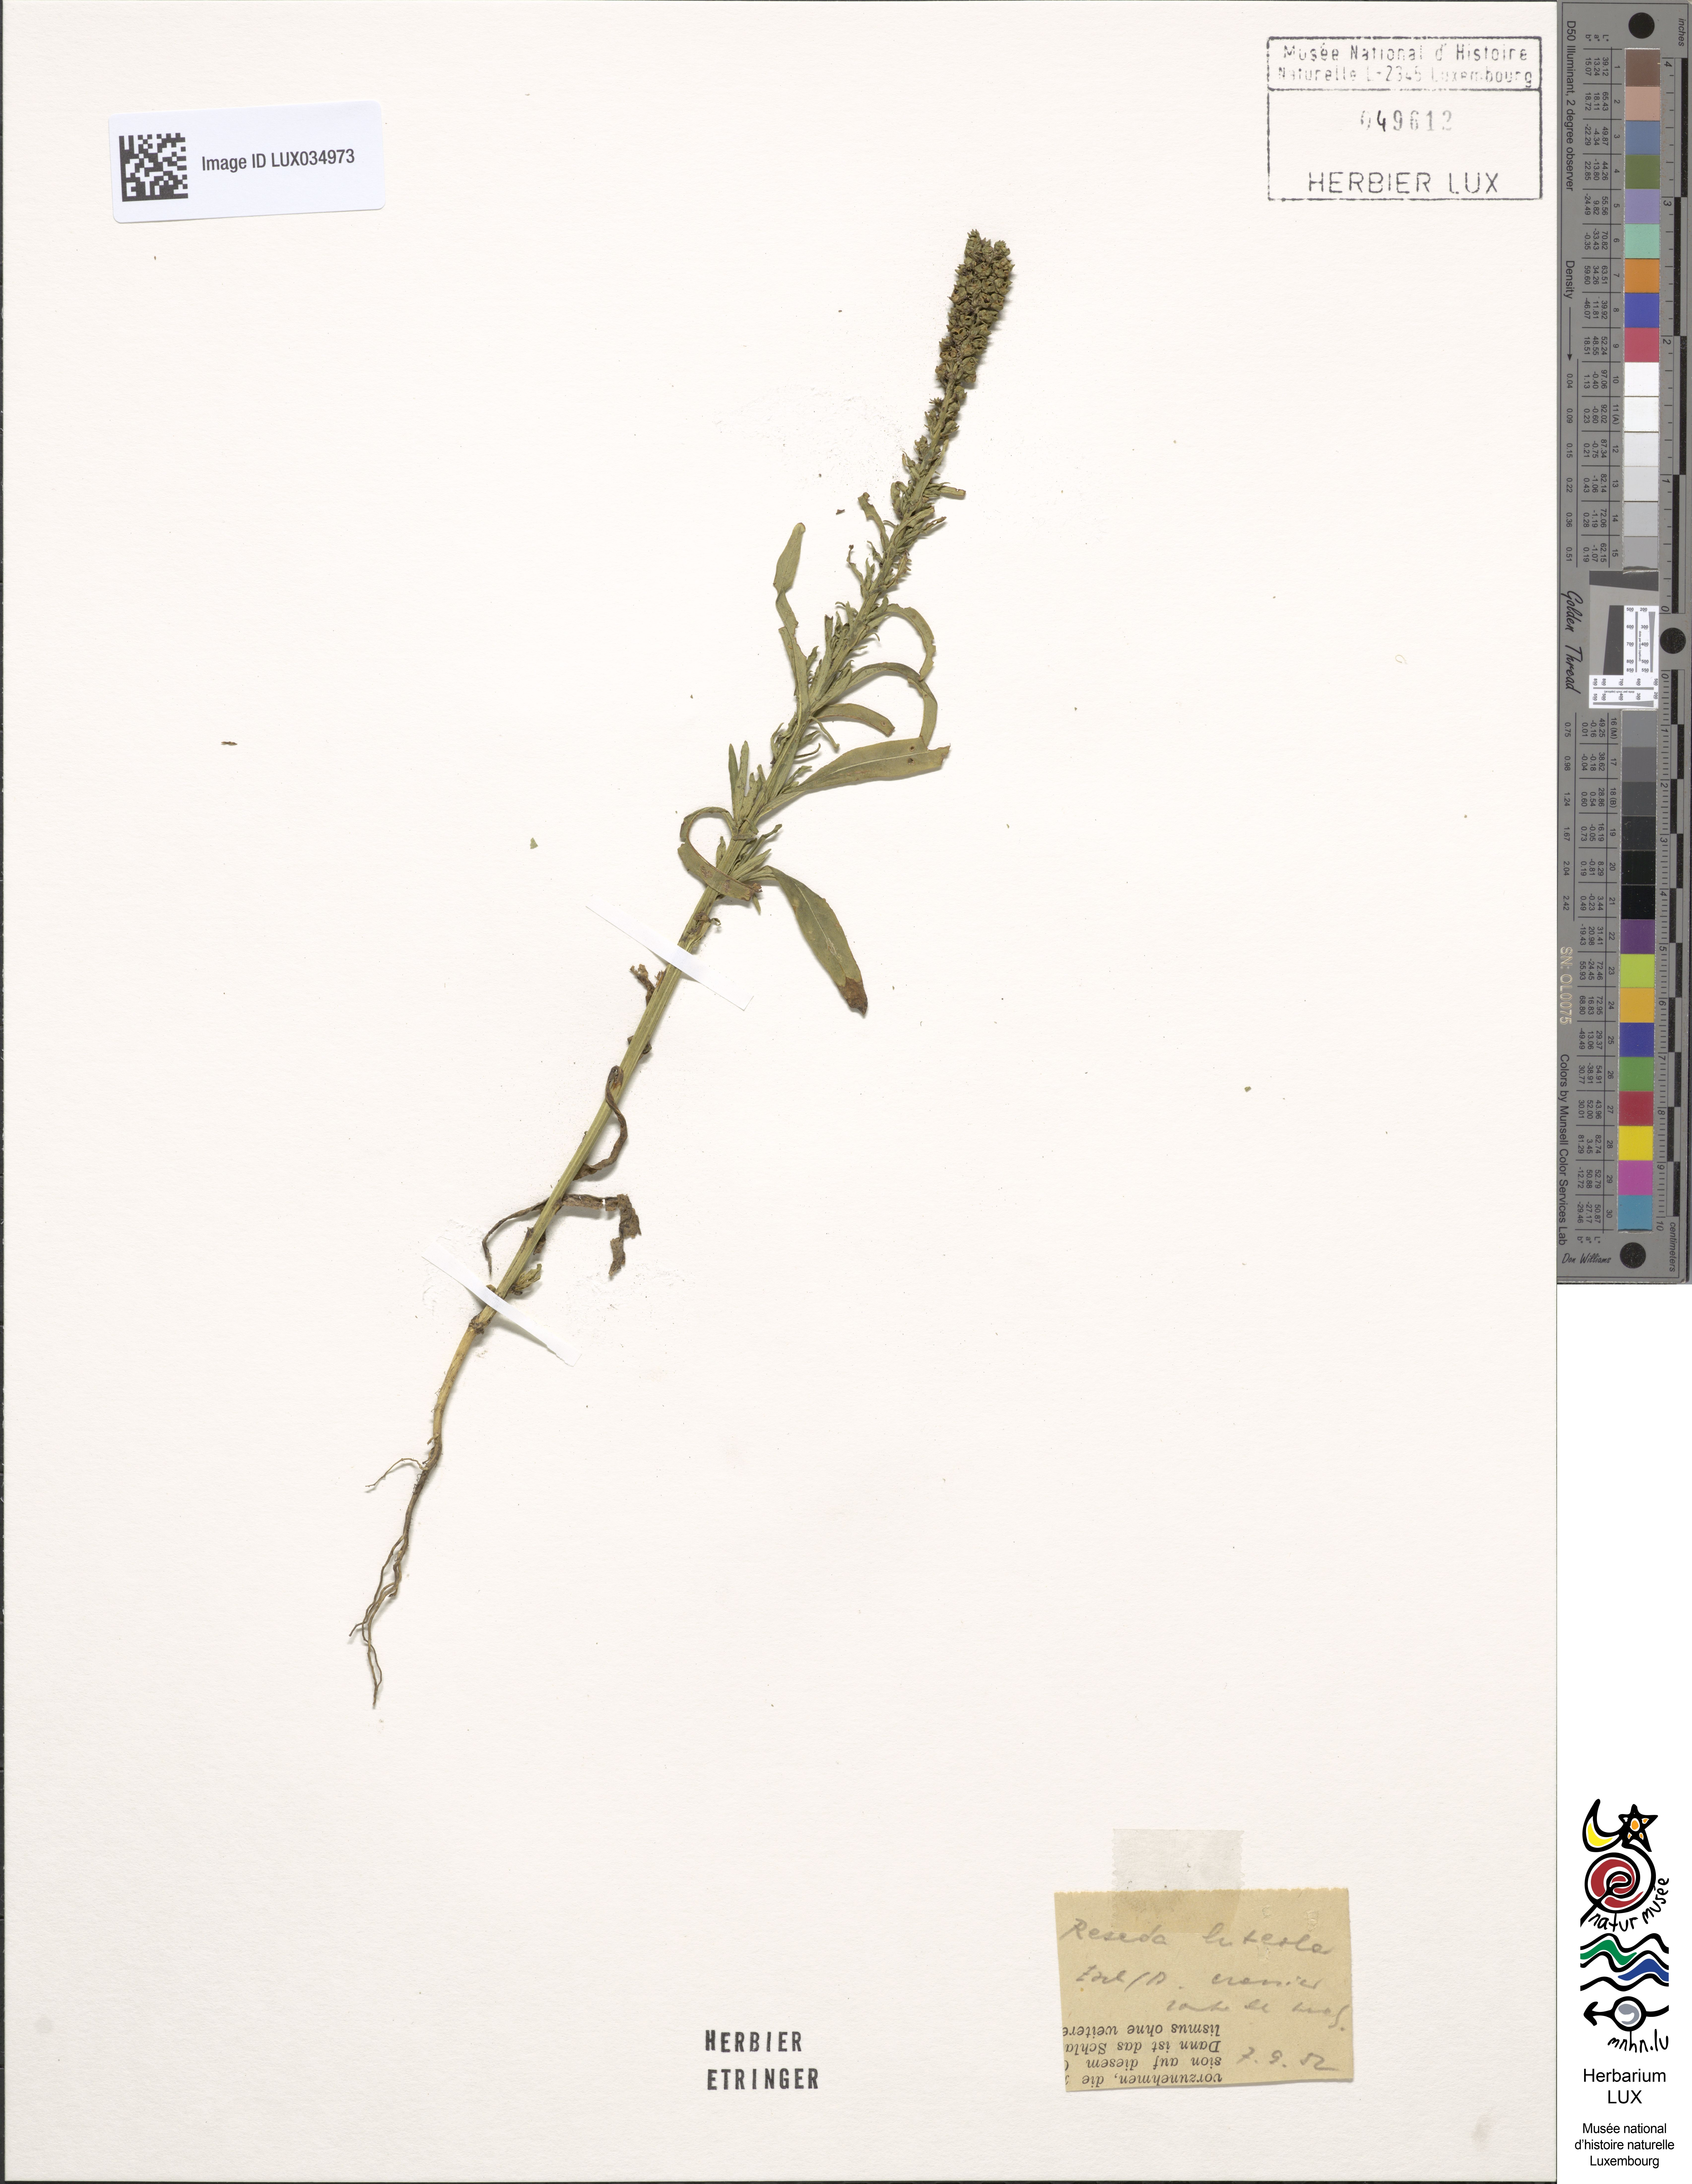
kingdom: Plantae
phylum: Tracheophyta
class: Magnoliopsida
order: Brassicales
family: Resedaceae
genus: Reseda
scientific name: Reseda lutea
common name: Wild mignonette
